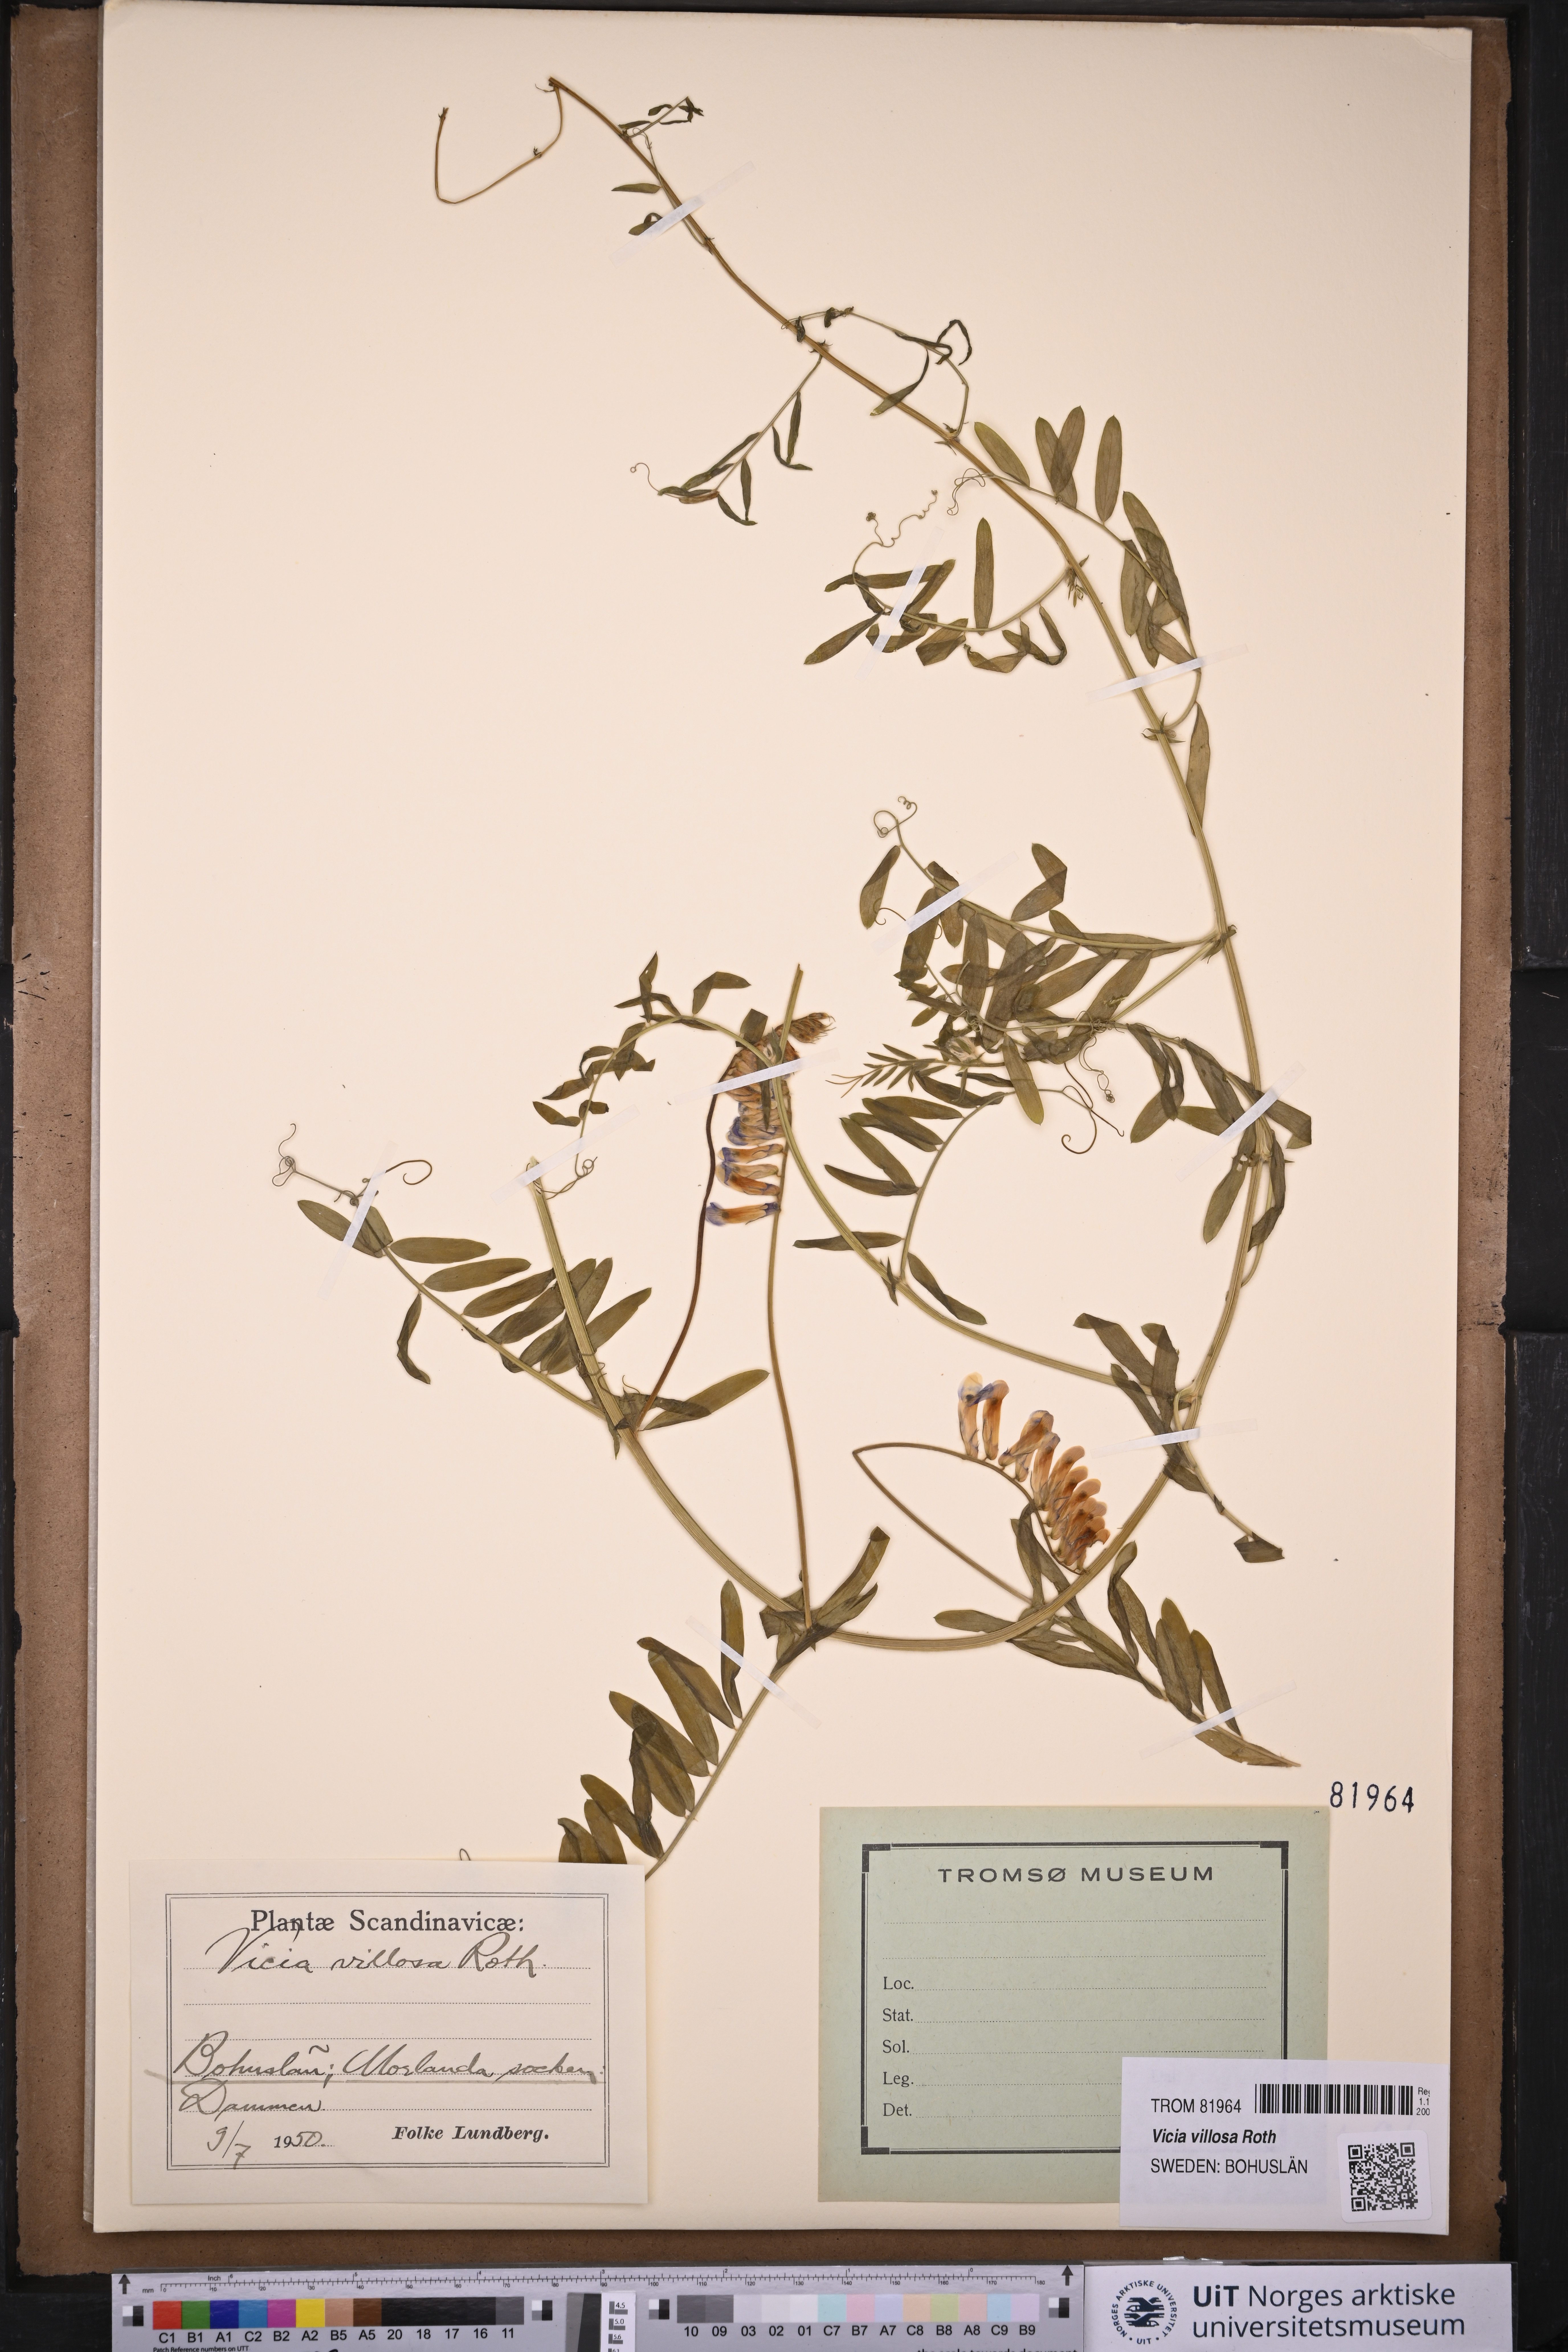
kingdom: Plantae
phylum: Tracheophyta
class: Magnoliopsida
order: Fabales
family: Fabaceae
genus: Vicia
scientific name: Vicia villosa
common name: Fodder vetch
